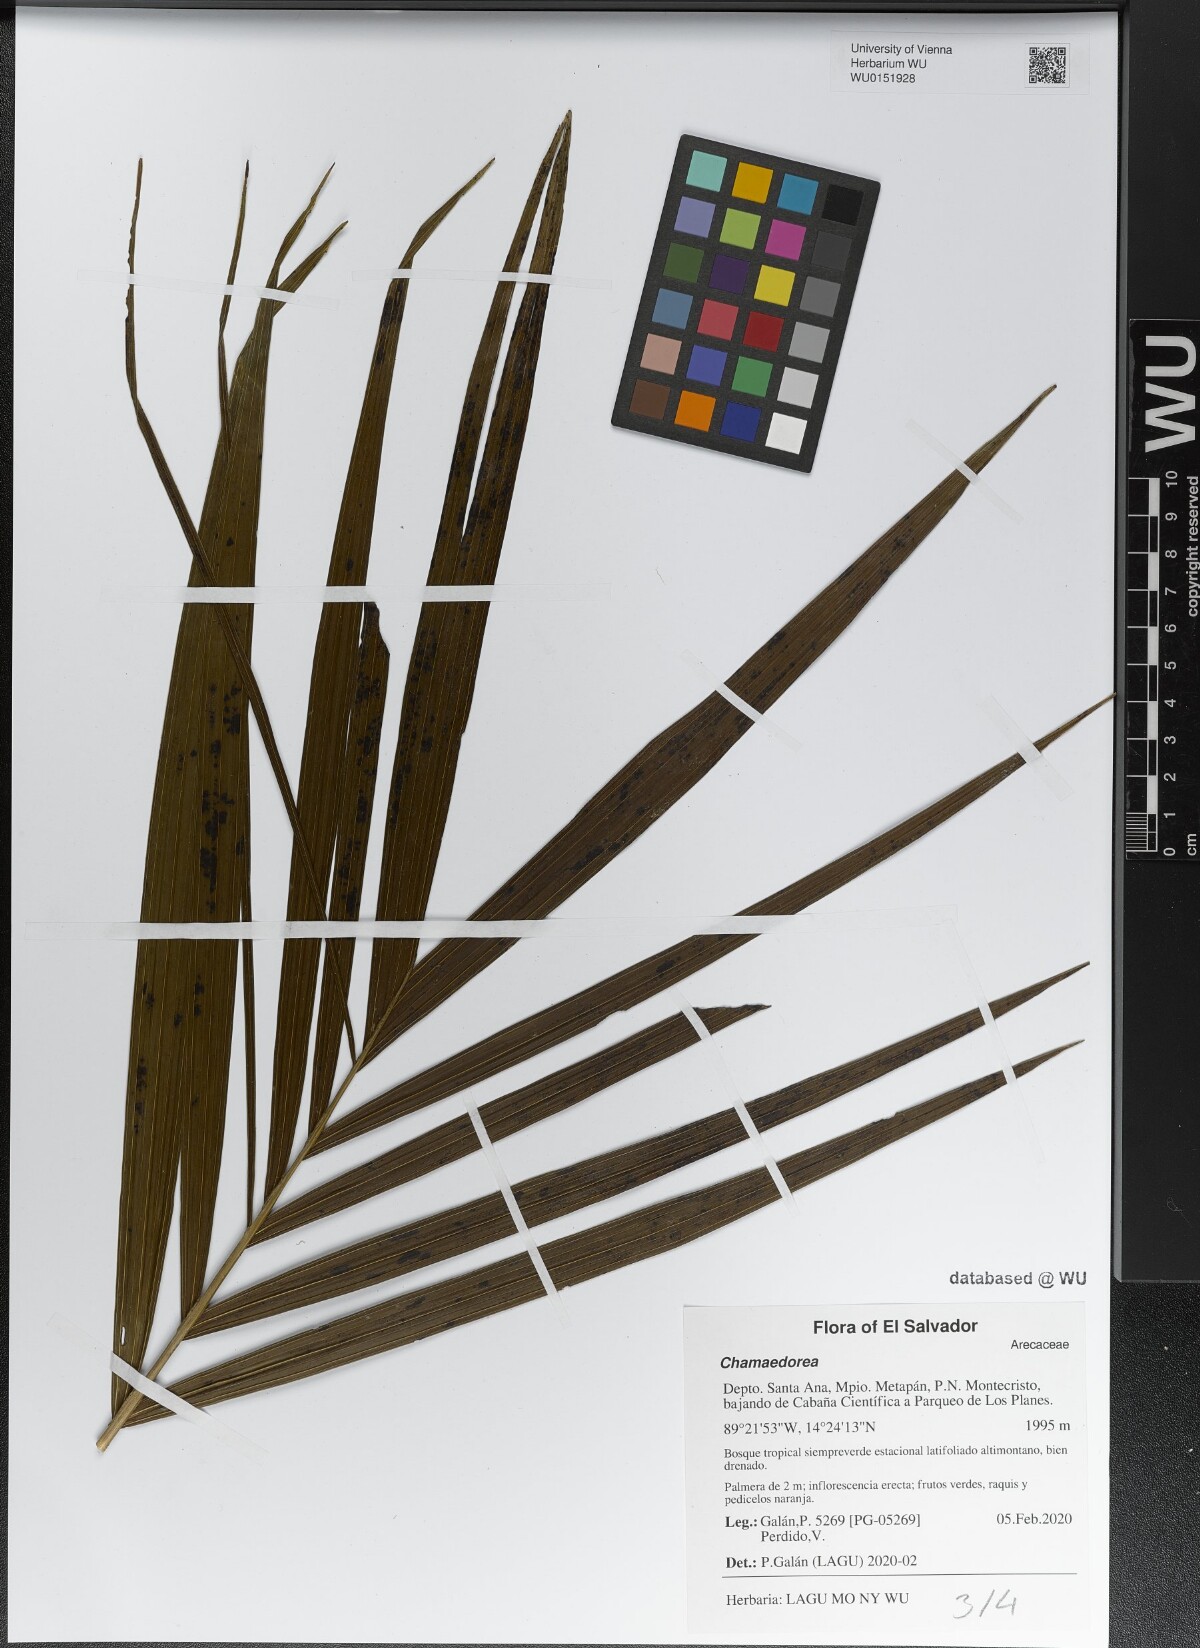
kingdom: Plantae
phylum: Tracheophyta
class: Liliopsida
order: Arecales
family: Arecaceae
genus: Chamaedorea
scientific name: Chamaedorea
